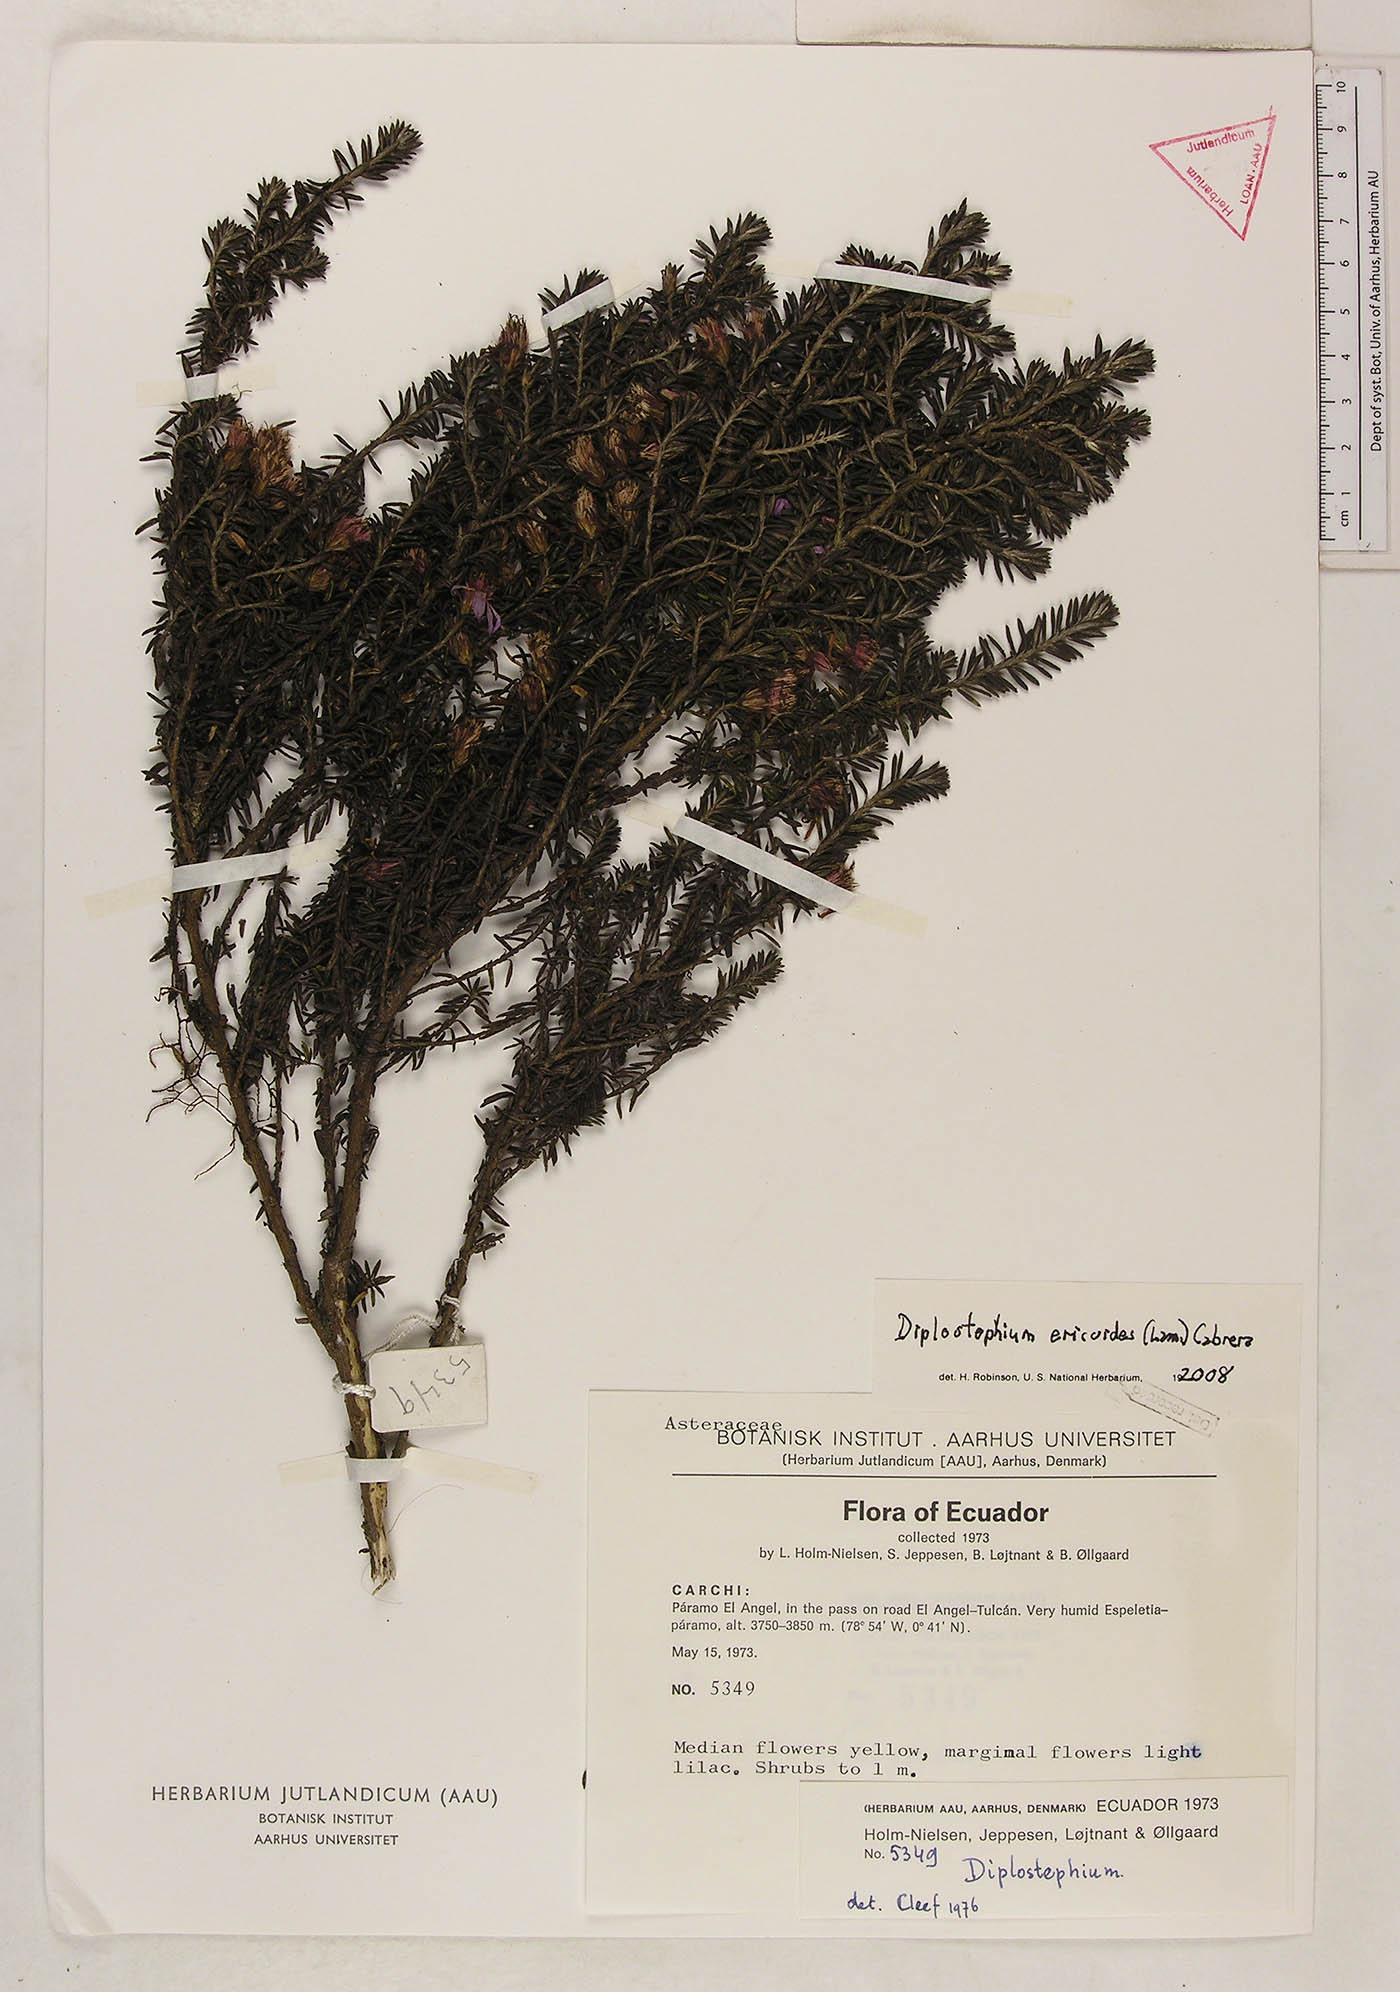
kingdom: Plantae
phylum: Tracheophyta
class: Magnoliopsida
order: Asterales
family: Asteraceae
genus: Diplostephium
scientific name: Diplostephium ericoides
